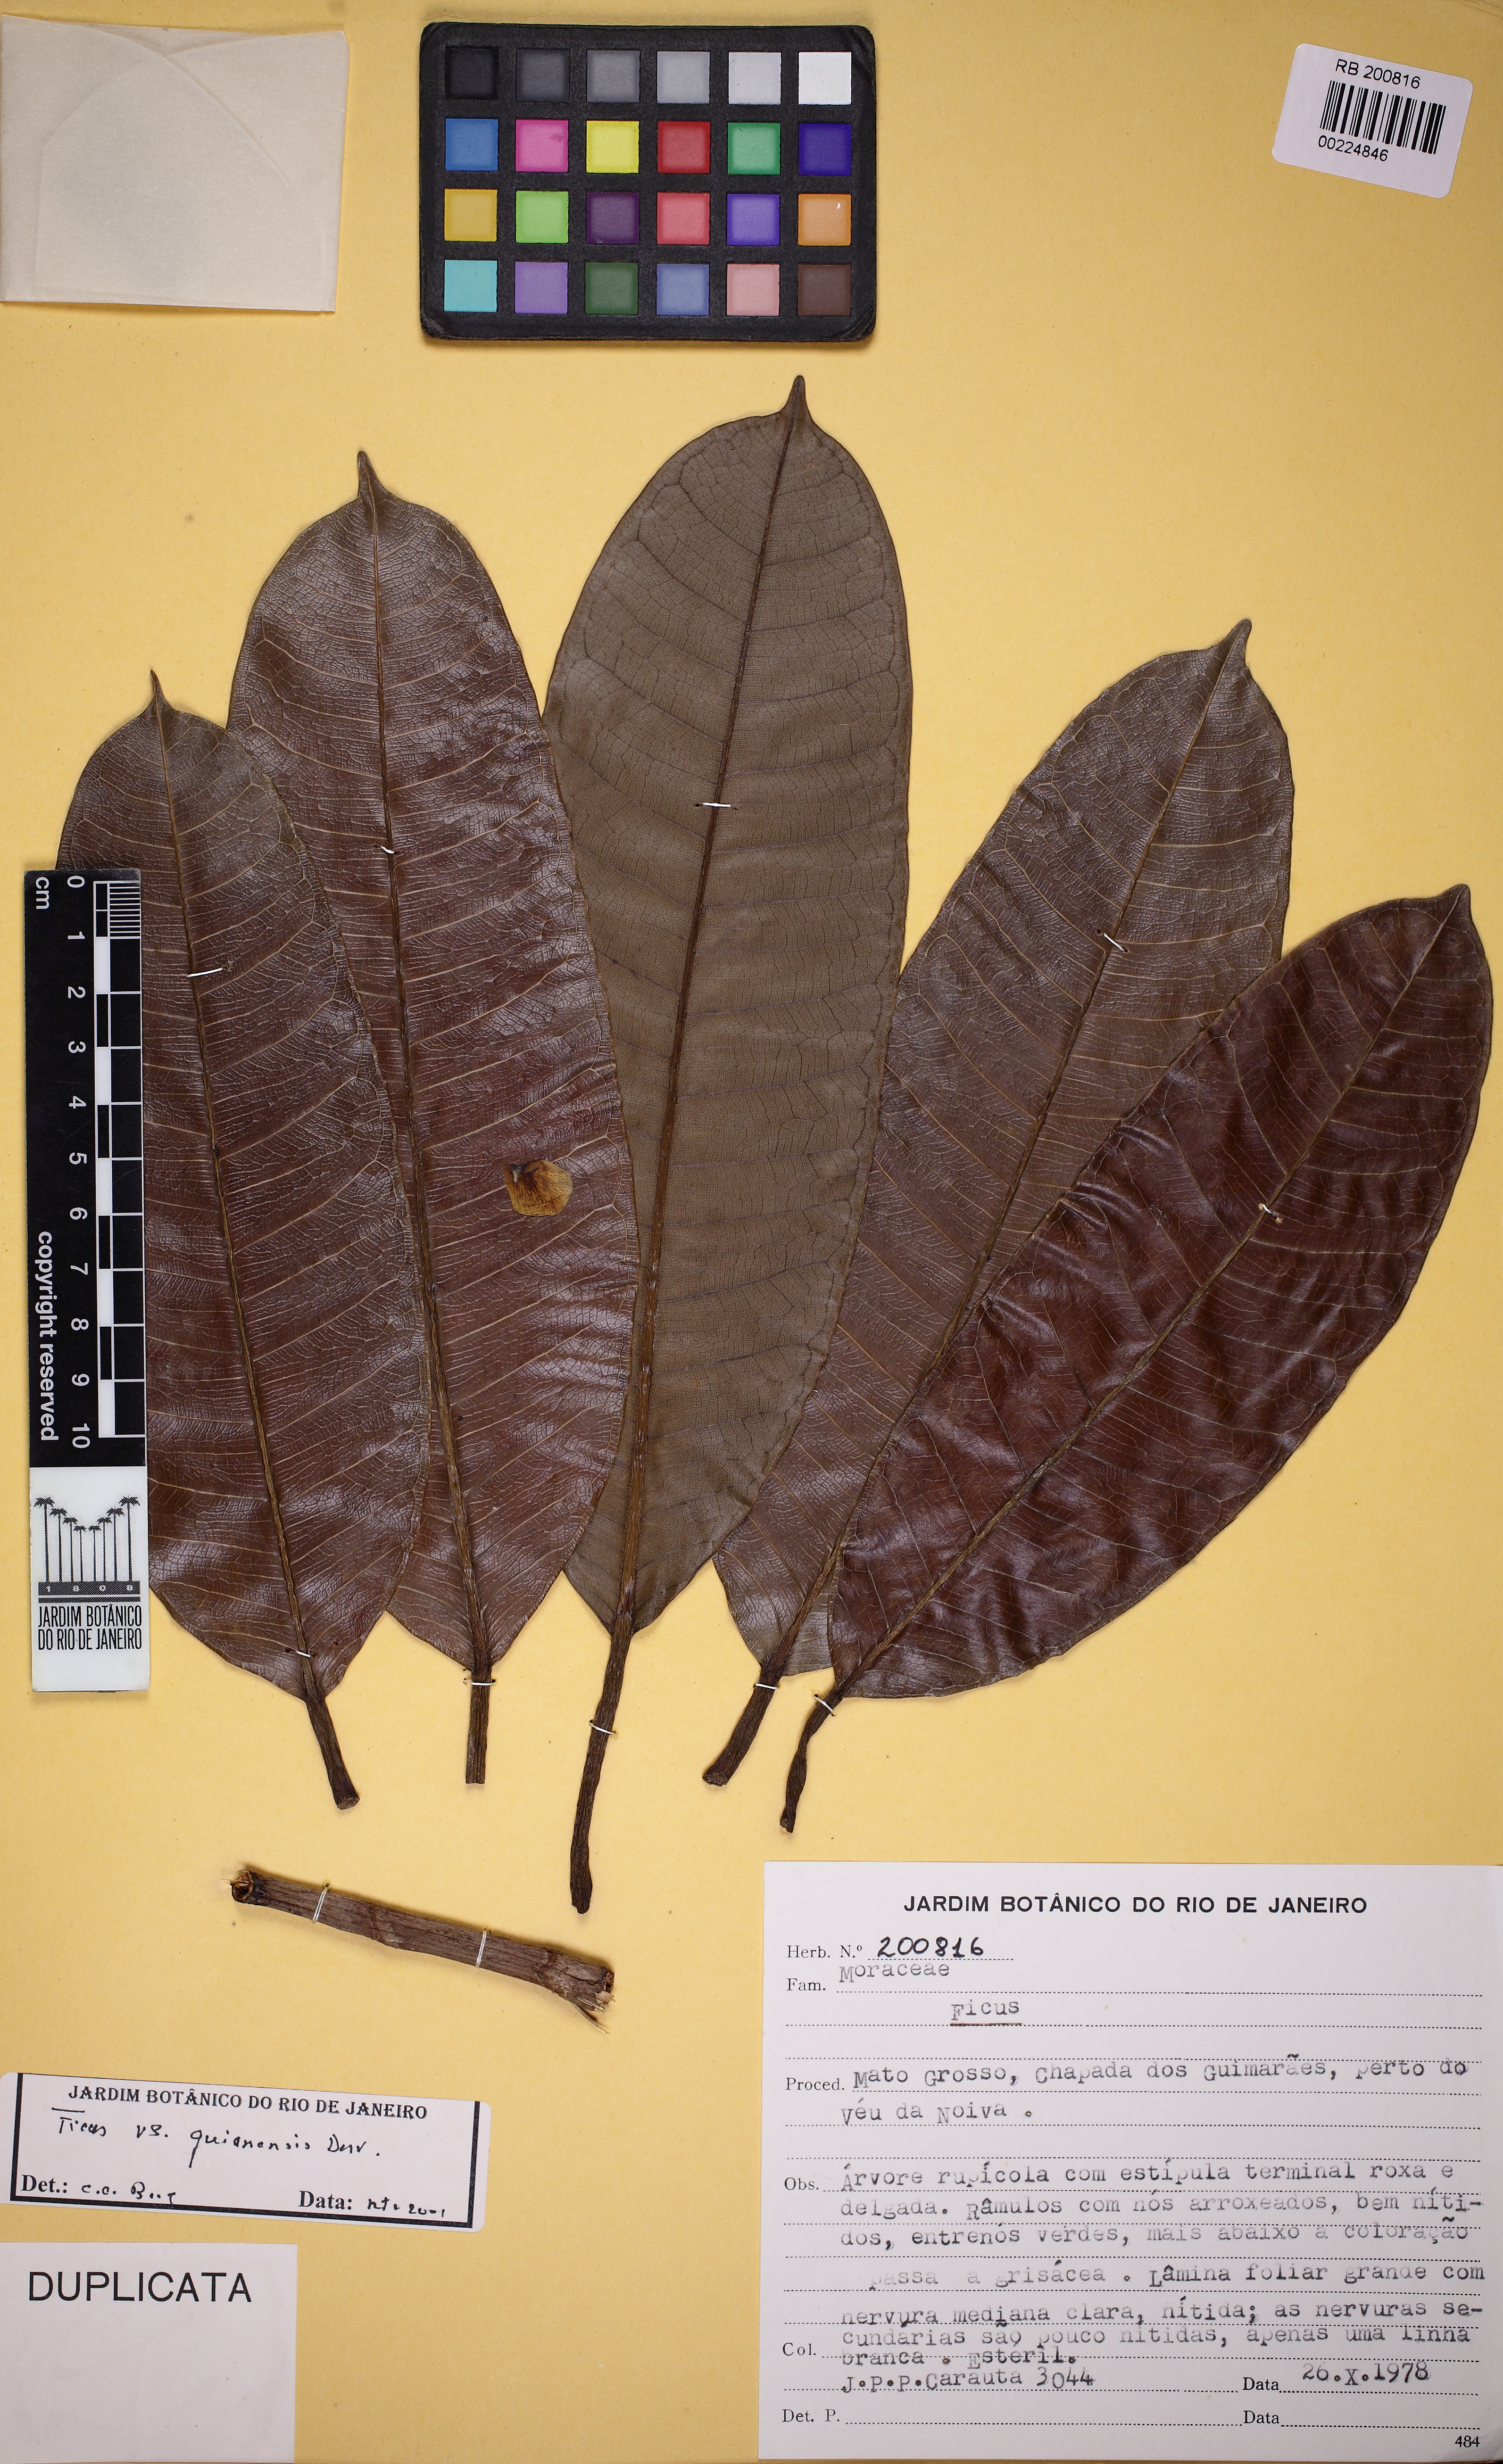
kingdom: Plantae
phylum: Tracheophyta
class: Magnoliopsida
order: Rosales
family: Moraceae
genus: Ficus
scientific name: Ficus americana
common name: Jamaican cherry fig
